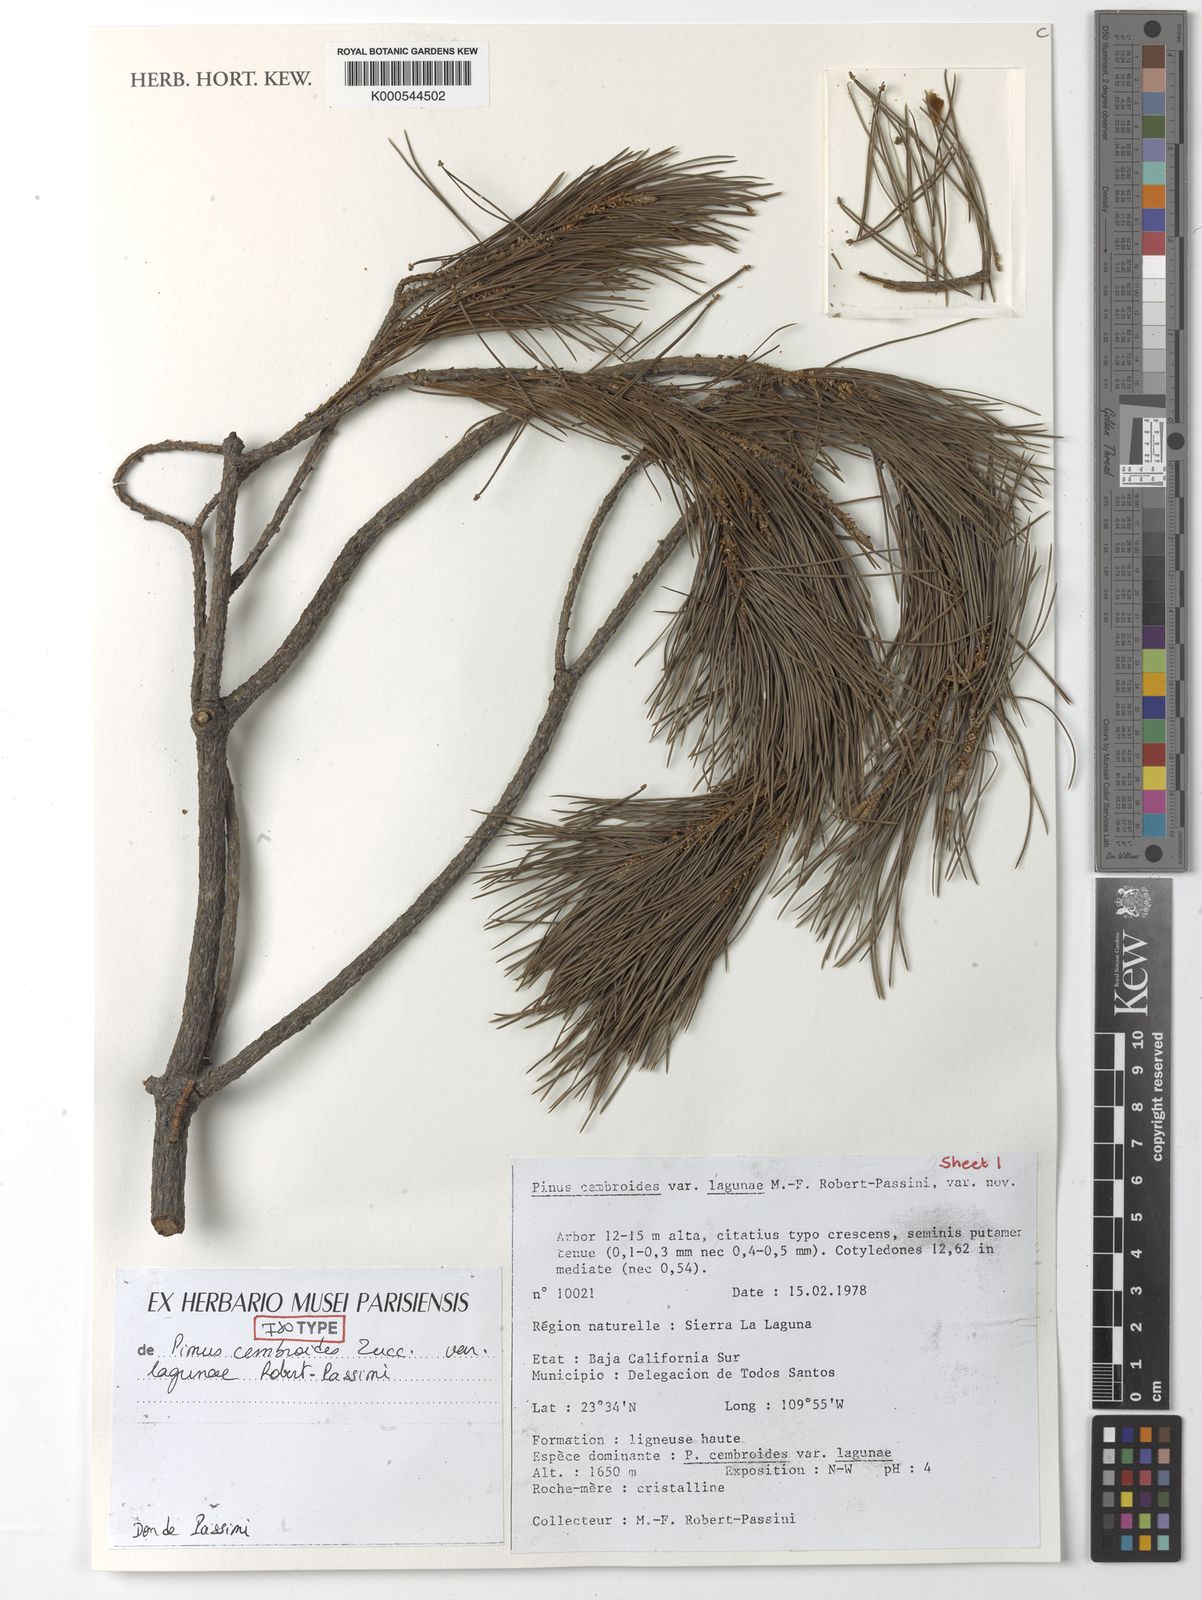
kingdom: Plantae
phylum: Tracheophyta
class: Pinopsida
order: Pinales
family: Pinaceae
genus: Pinus
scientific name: Pinus cembroides
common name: Mexican nut pine
